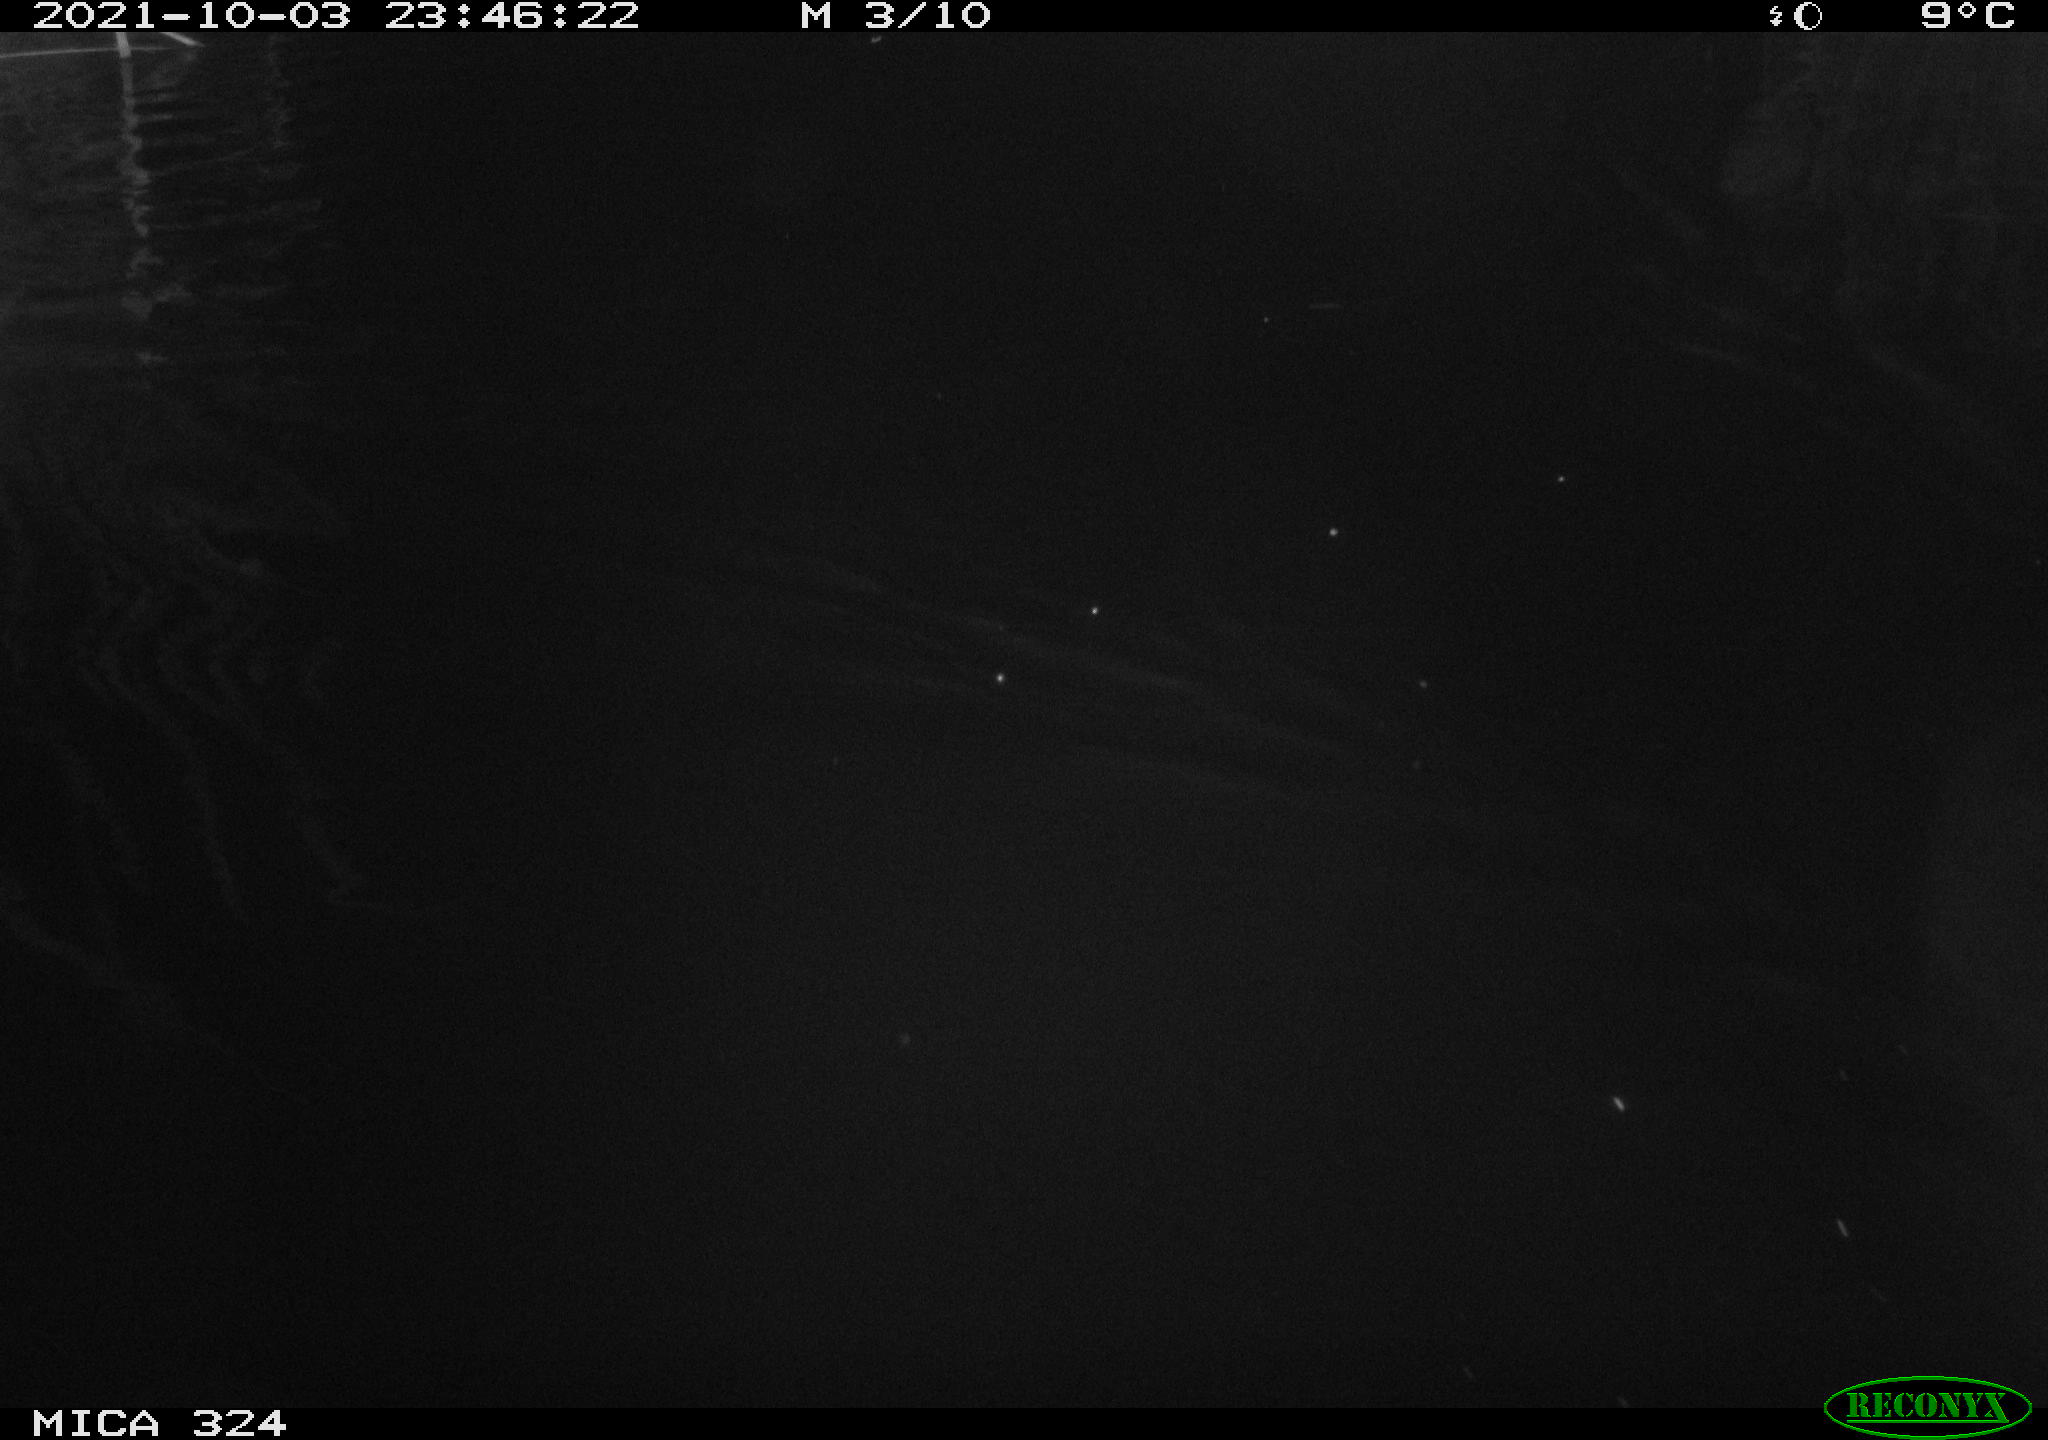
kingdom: Animalia
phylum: Chordata
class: Mammalia
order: Rodentia
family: Cricetidae
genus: Ondatra
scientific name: Ondatra zibethicus
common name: Muskrat
